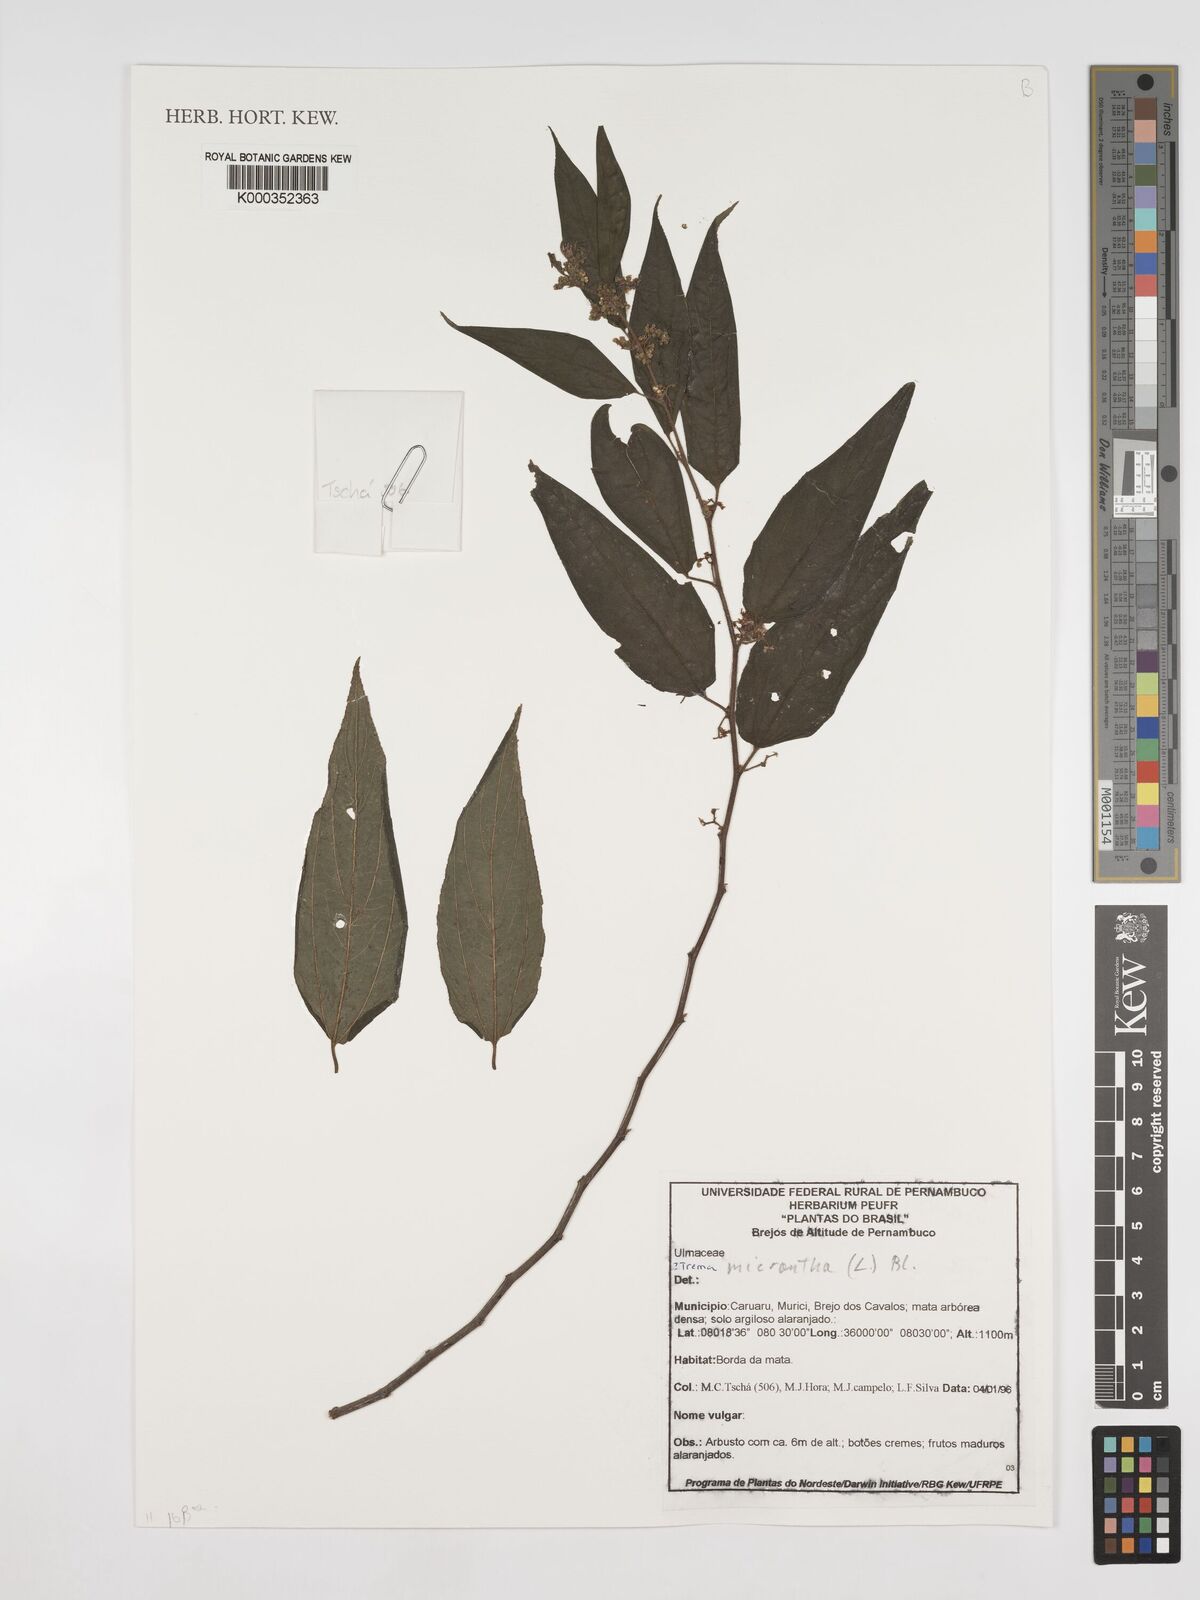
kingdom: Plantae
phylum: Tracheophyta
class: Magnoliopsida
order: Rosales
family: Cannabaceae
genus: Trema
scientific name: Trema micranthum
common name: Jamaican nettletree
